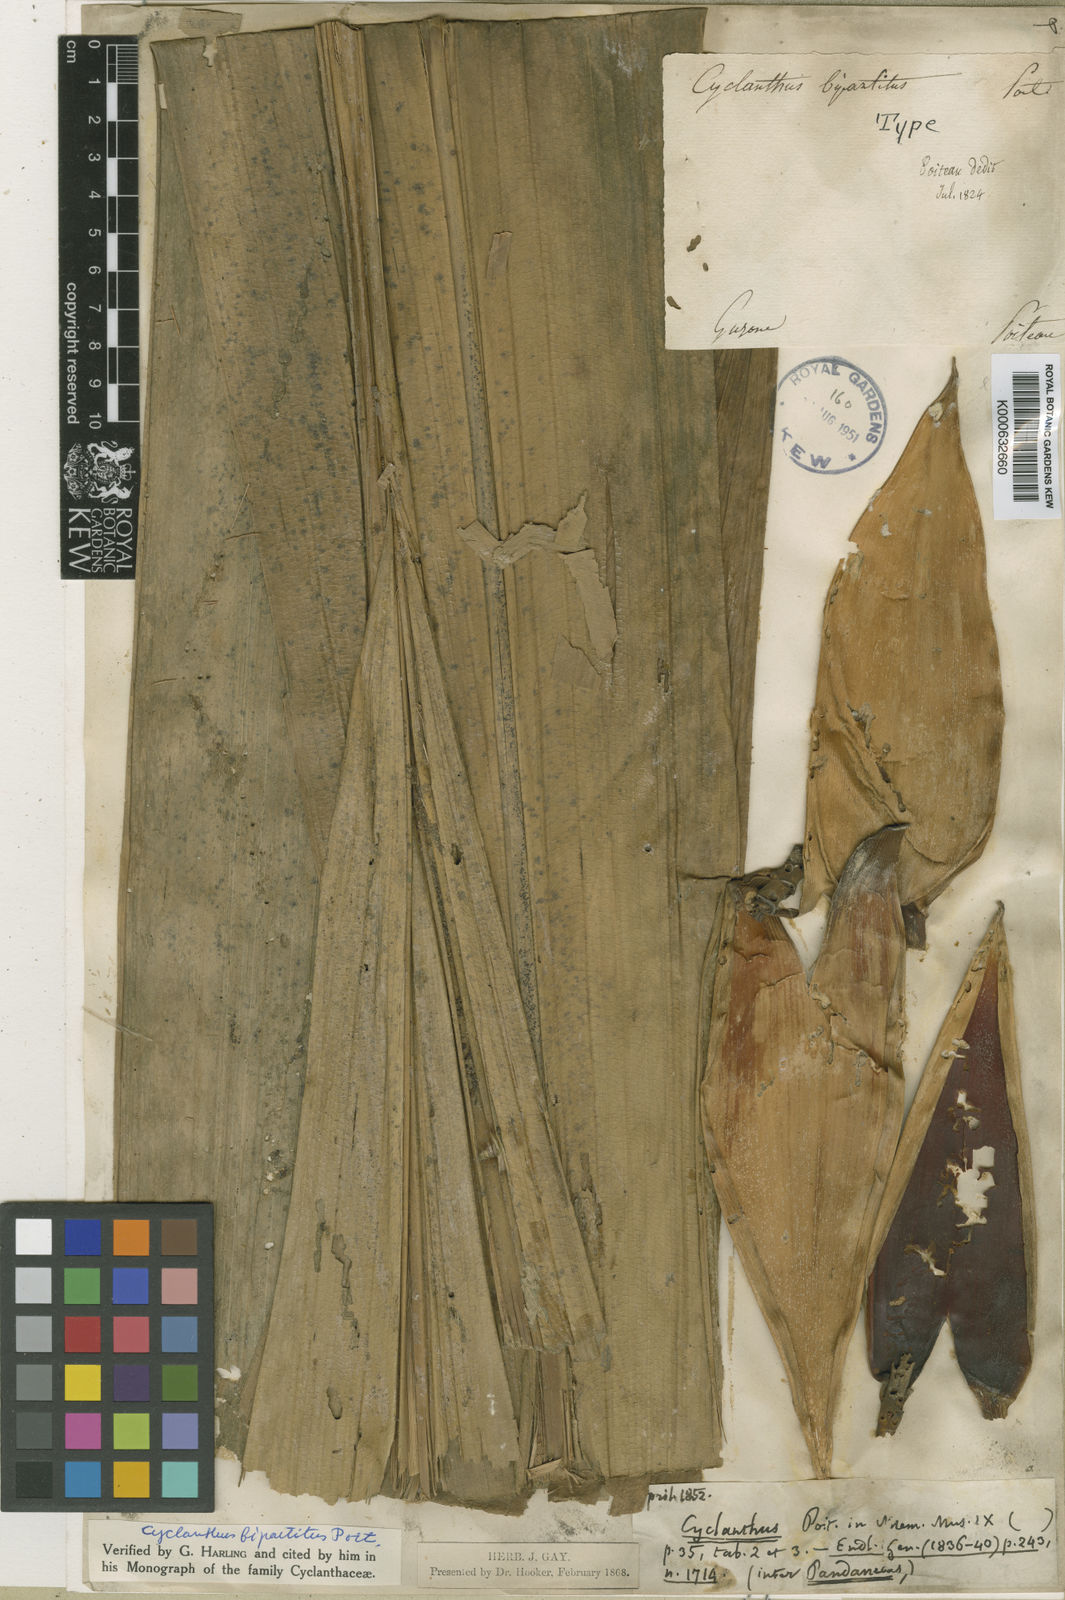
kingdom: Plantae
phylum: Tracheophyta
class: Liliopsida
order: Pandanales
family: Cyclanthaceae
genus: Cyclanthus
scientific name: Cyclanthus bipartitus
